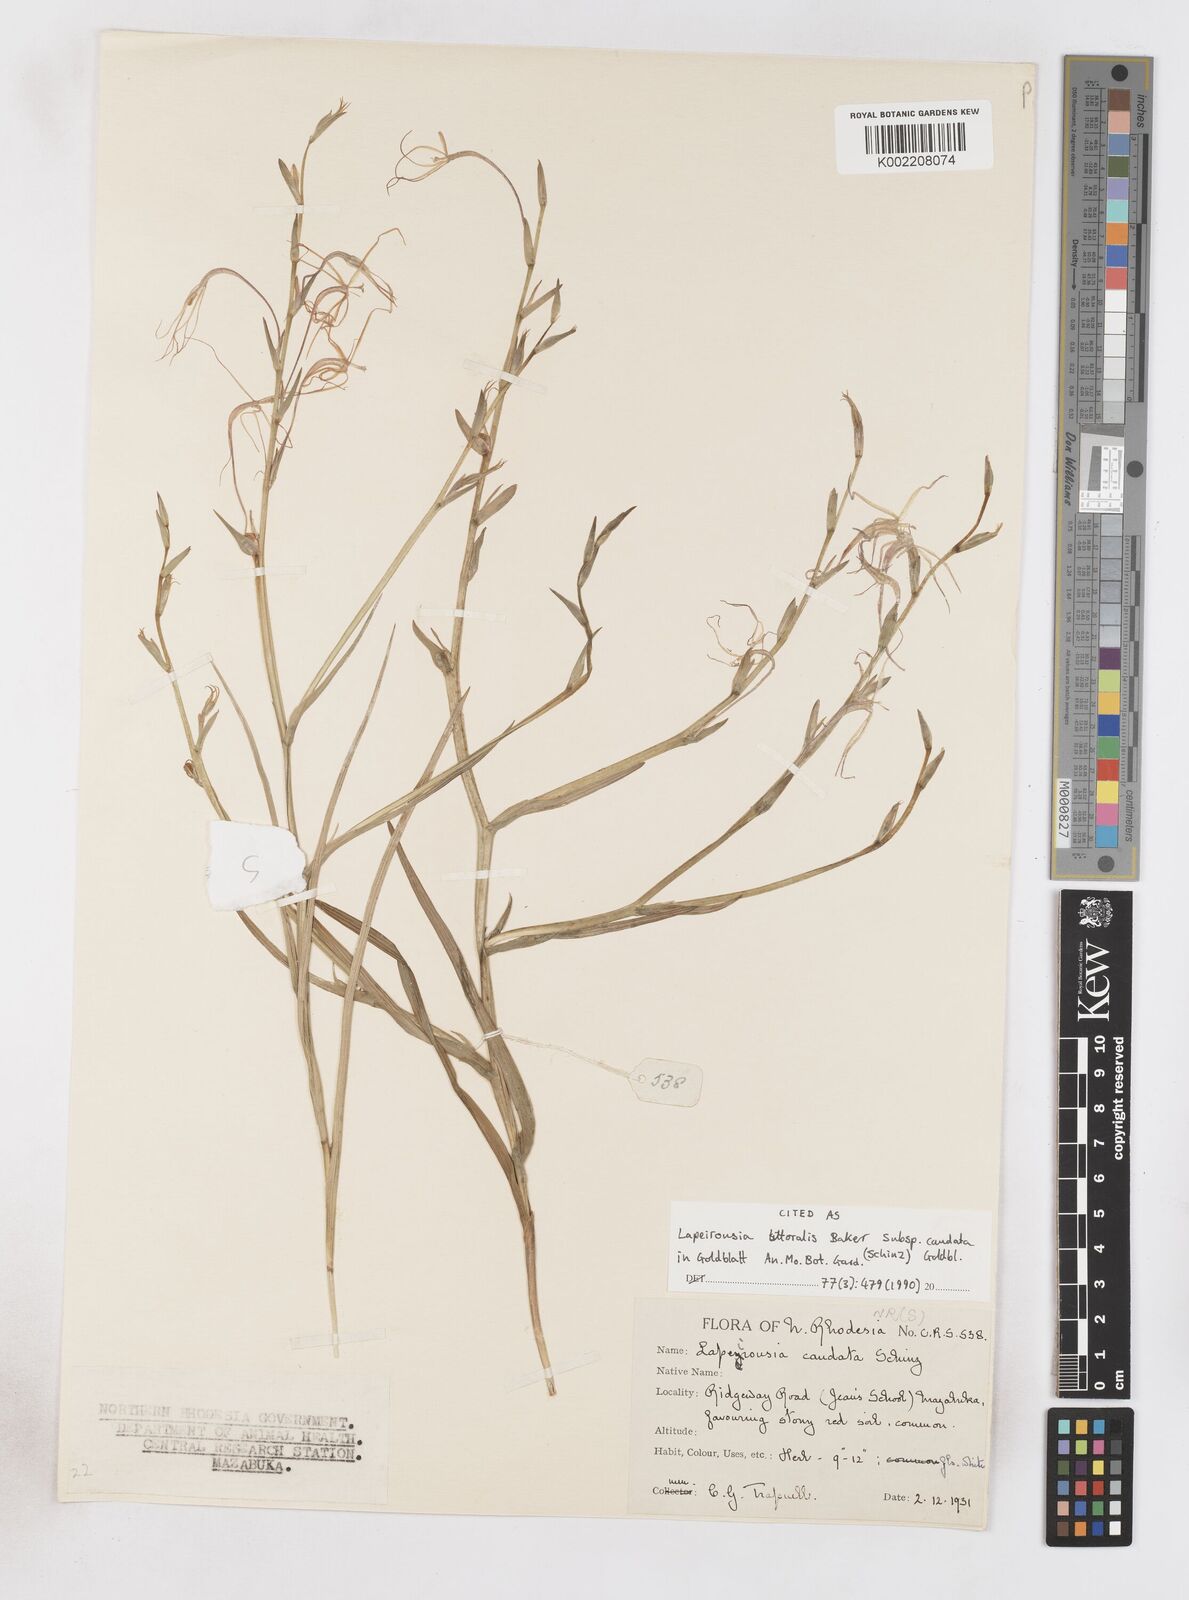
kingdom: Plantae
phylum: Tracheophyta
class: Liliopsida
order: Asparagales
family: Iridaceae
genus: Lapeirousia
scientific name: Lapeirousia caudata
